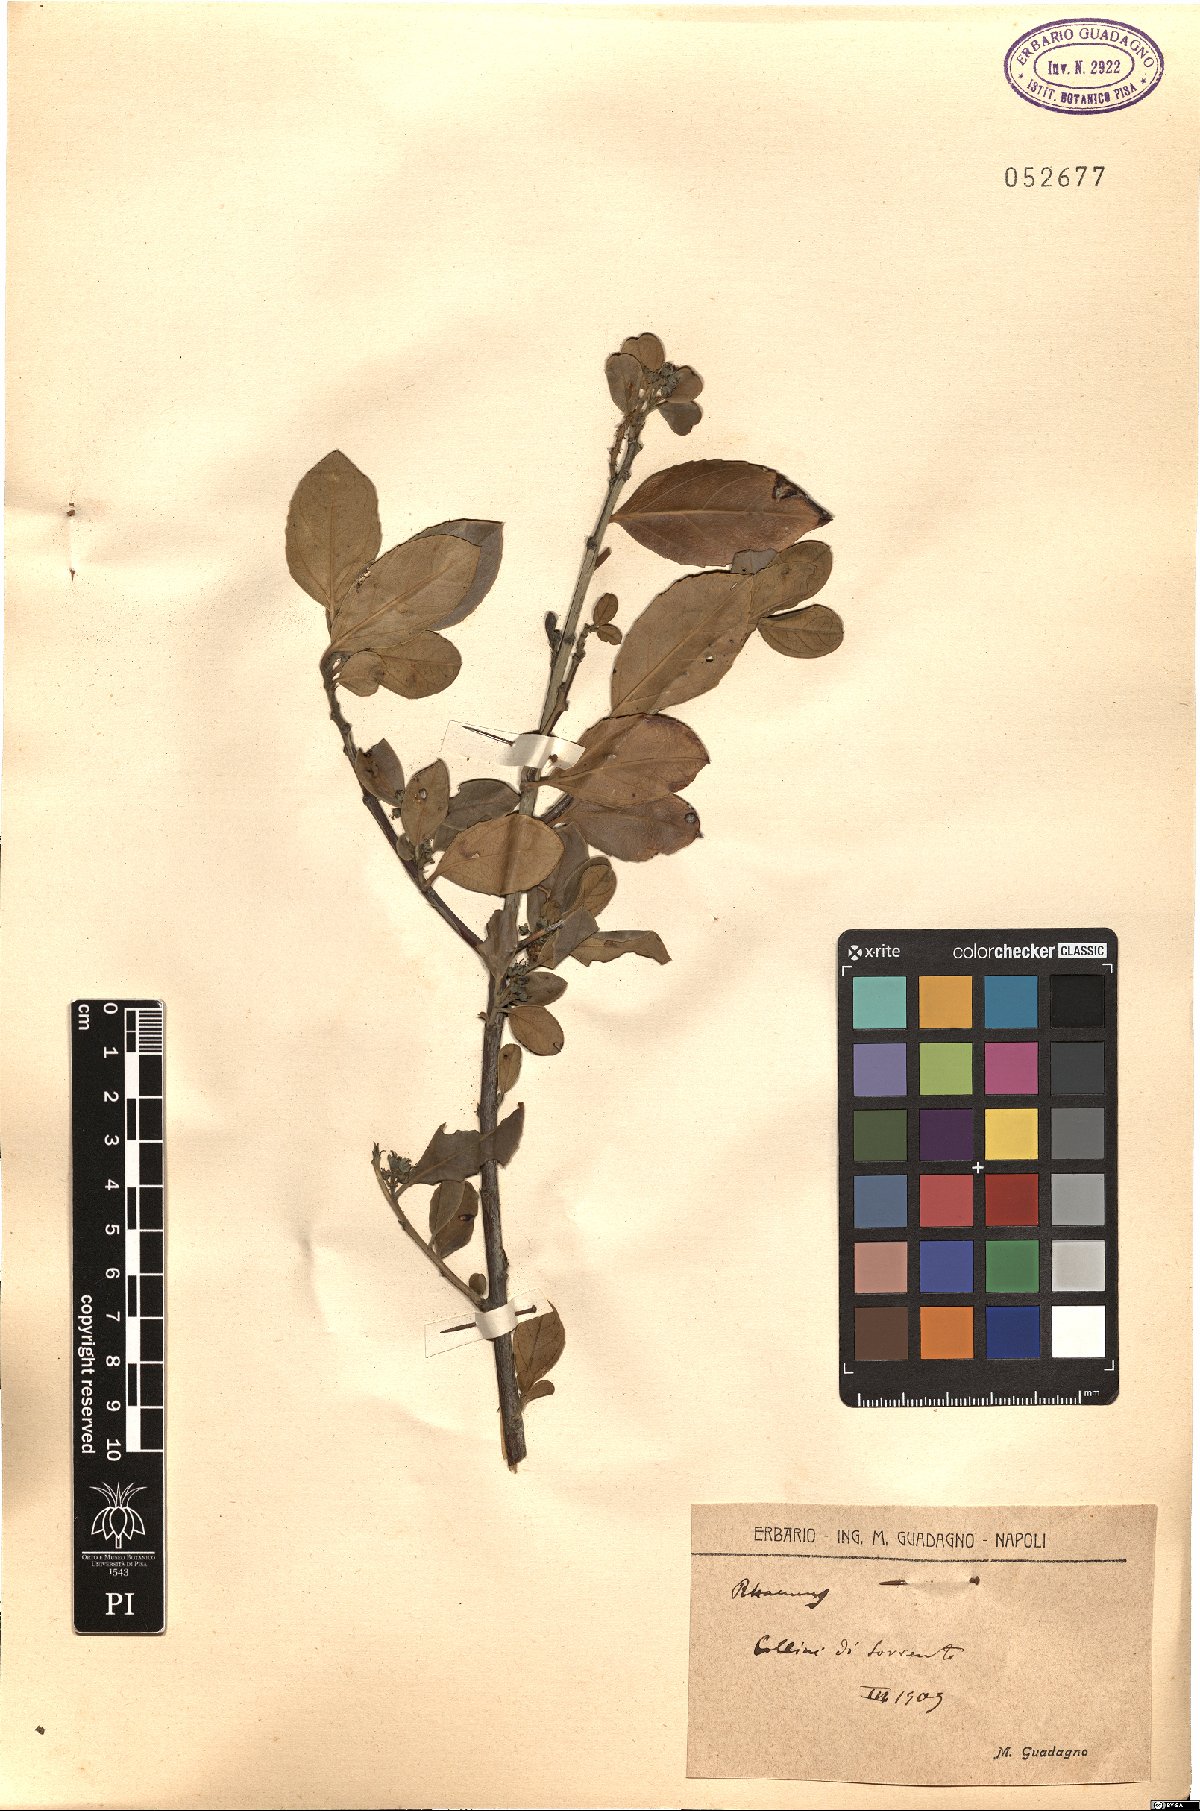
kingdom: Plantae
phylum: Tracheophyta
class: Magnoliopsida
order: Rosales
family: Rhamnaceae
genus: Rhamnus
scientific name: Rhamnus
